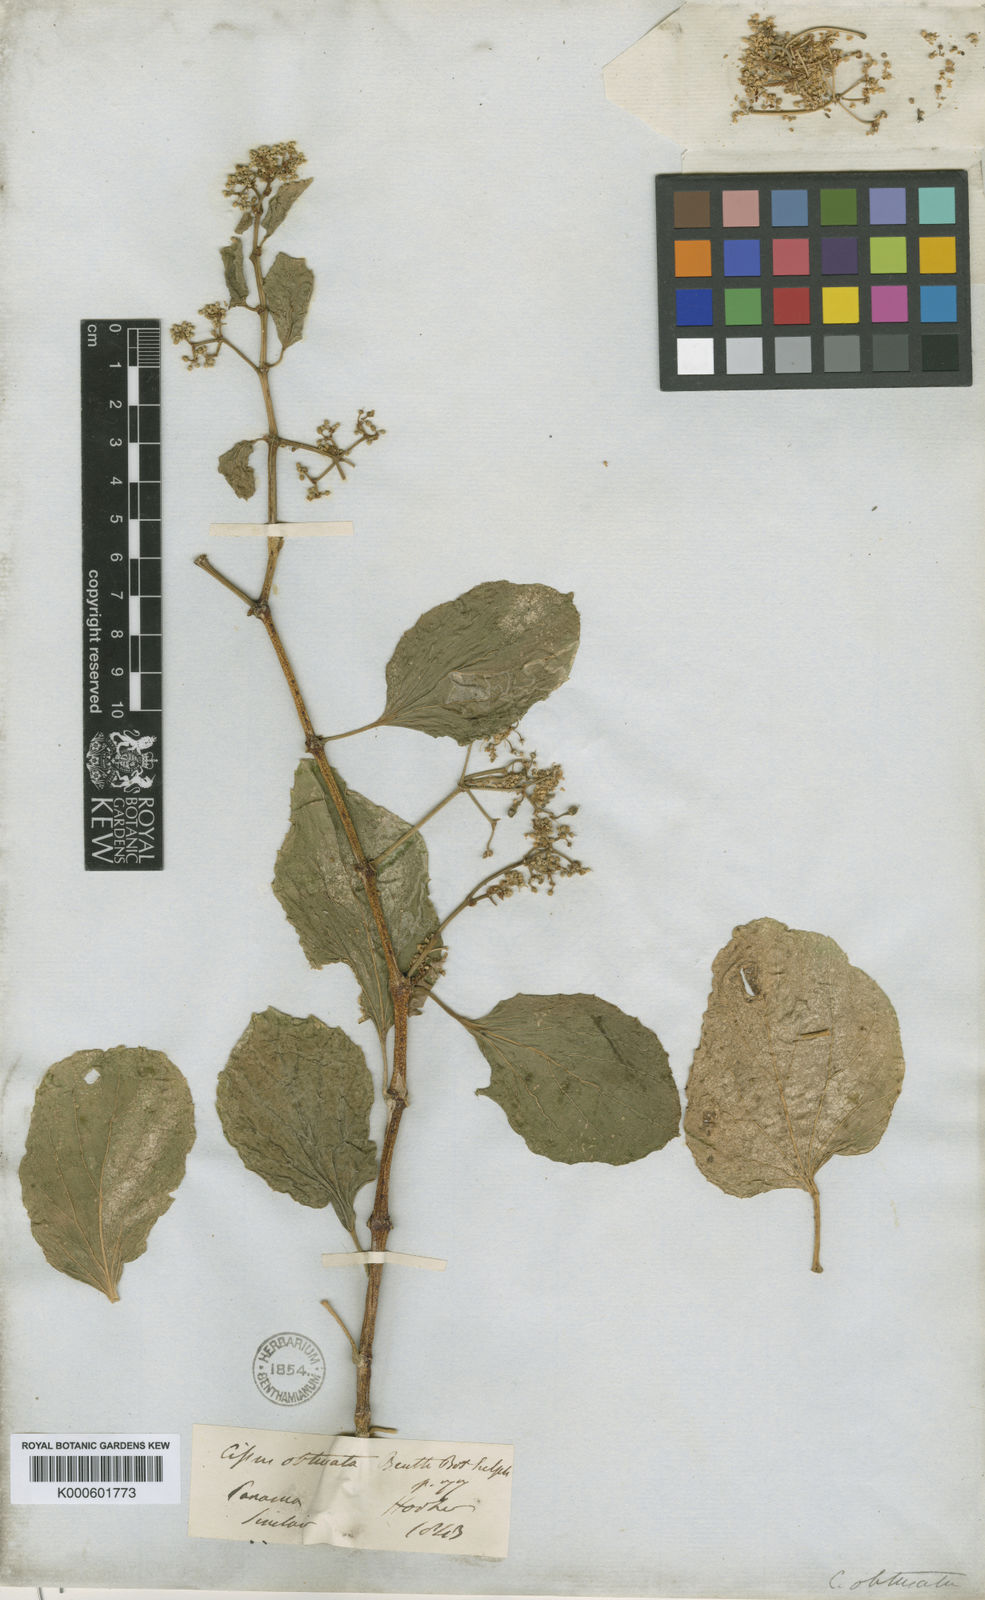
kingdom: Plantae
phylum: Tracheophyta
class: Magnoliopsida
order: Vitales
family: Vitaceae
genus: Cissus
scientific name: Cissus verticillata
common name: Princess vine
